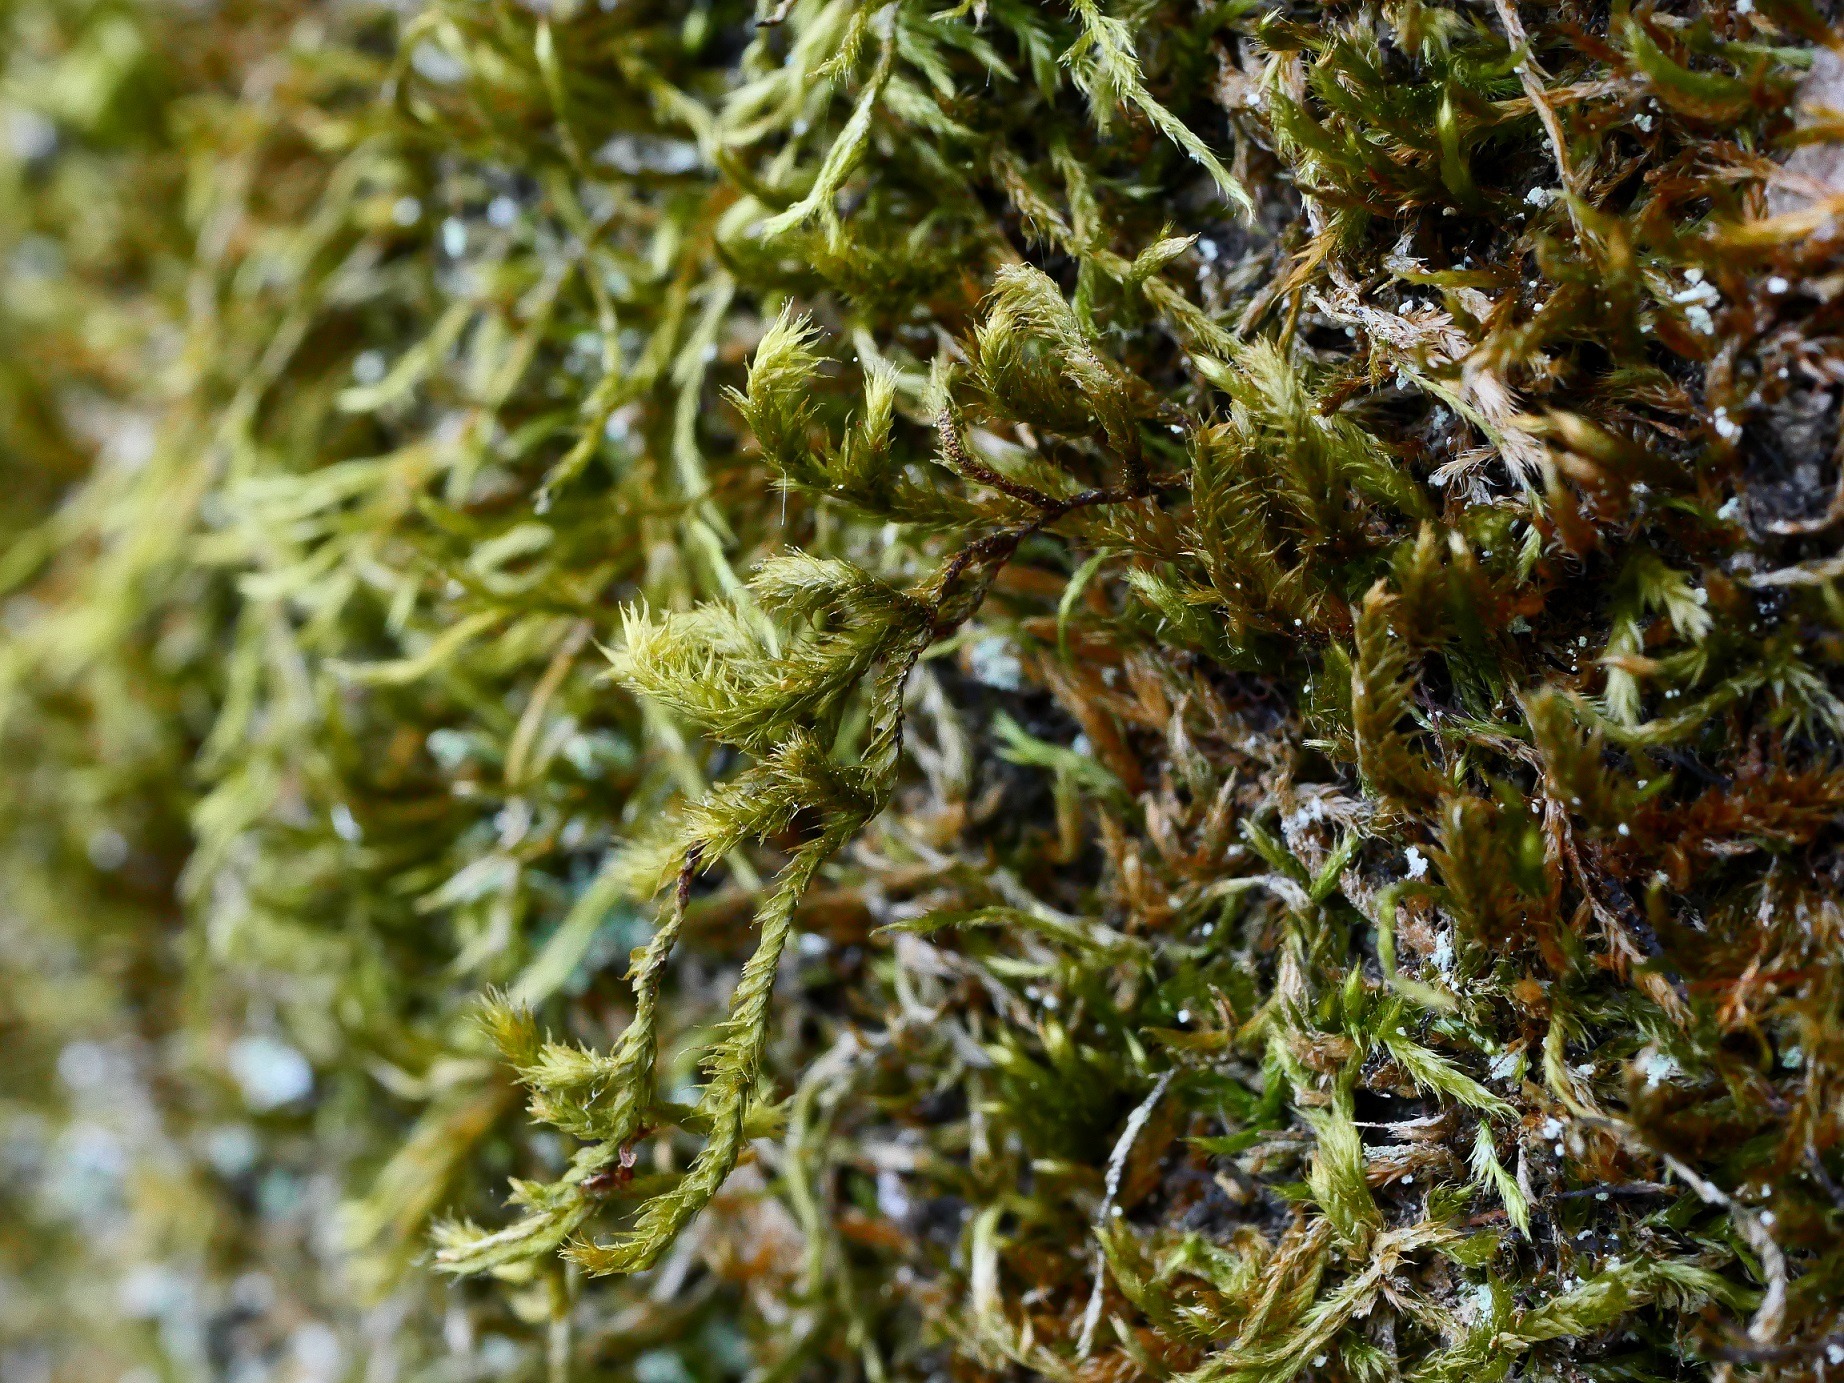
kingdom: Plantae
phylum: Bryophyta
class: Bryopsida
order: Hypnales
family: Antitrichiaceae
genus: Antitrichia
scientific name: Antitrichia curtipendula
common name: Åben krogtand
